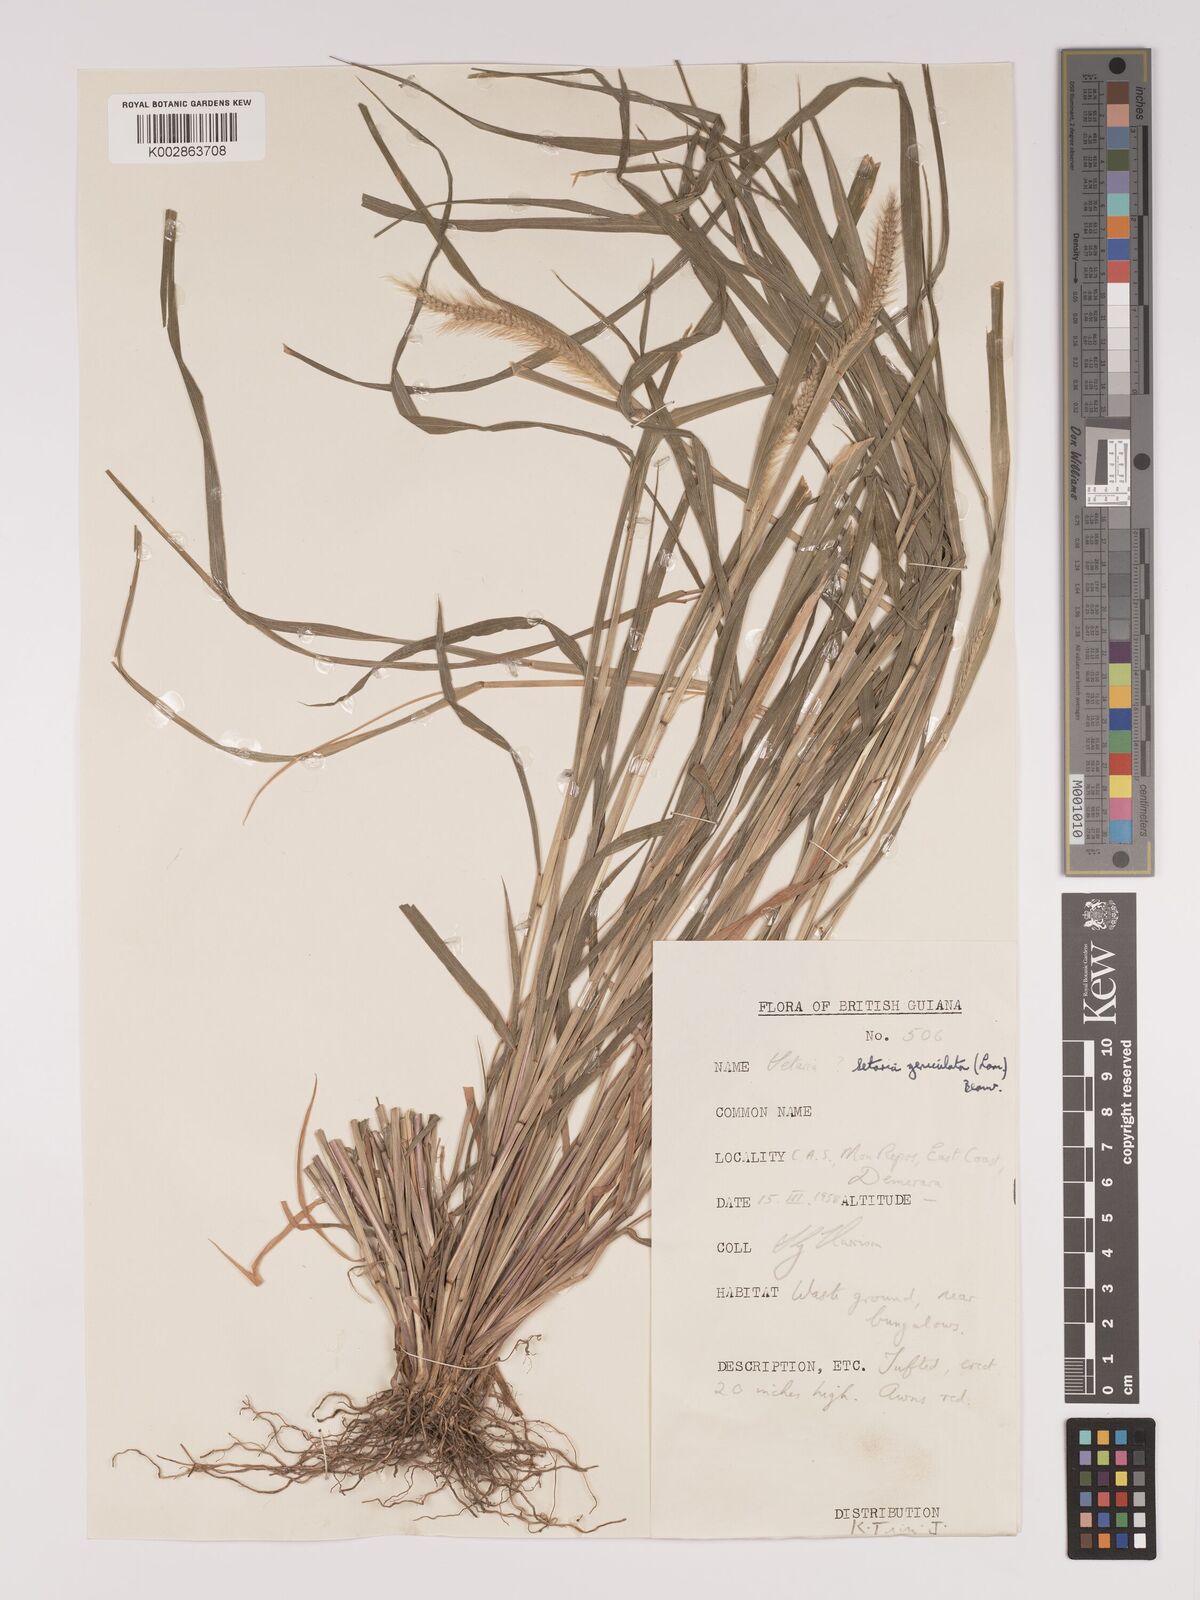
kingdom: Plantae
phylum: Tracheophyta
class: Liliopsida
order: Poales
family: Poaceae
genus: Setaria
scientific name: Setaria parviflora
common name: Knotroot bristle-grass
